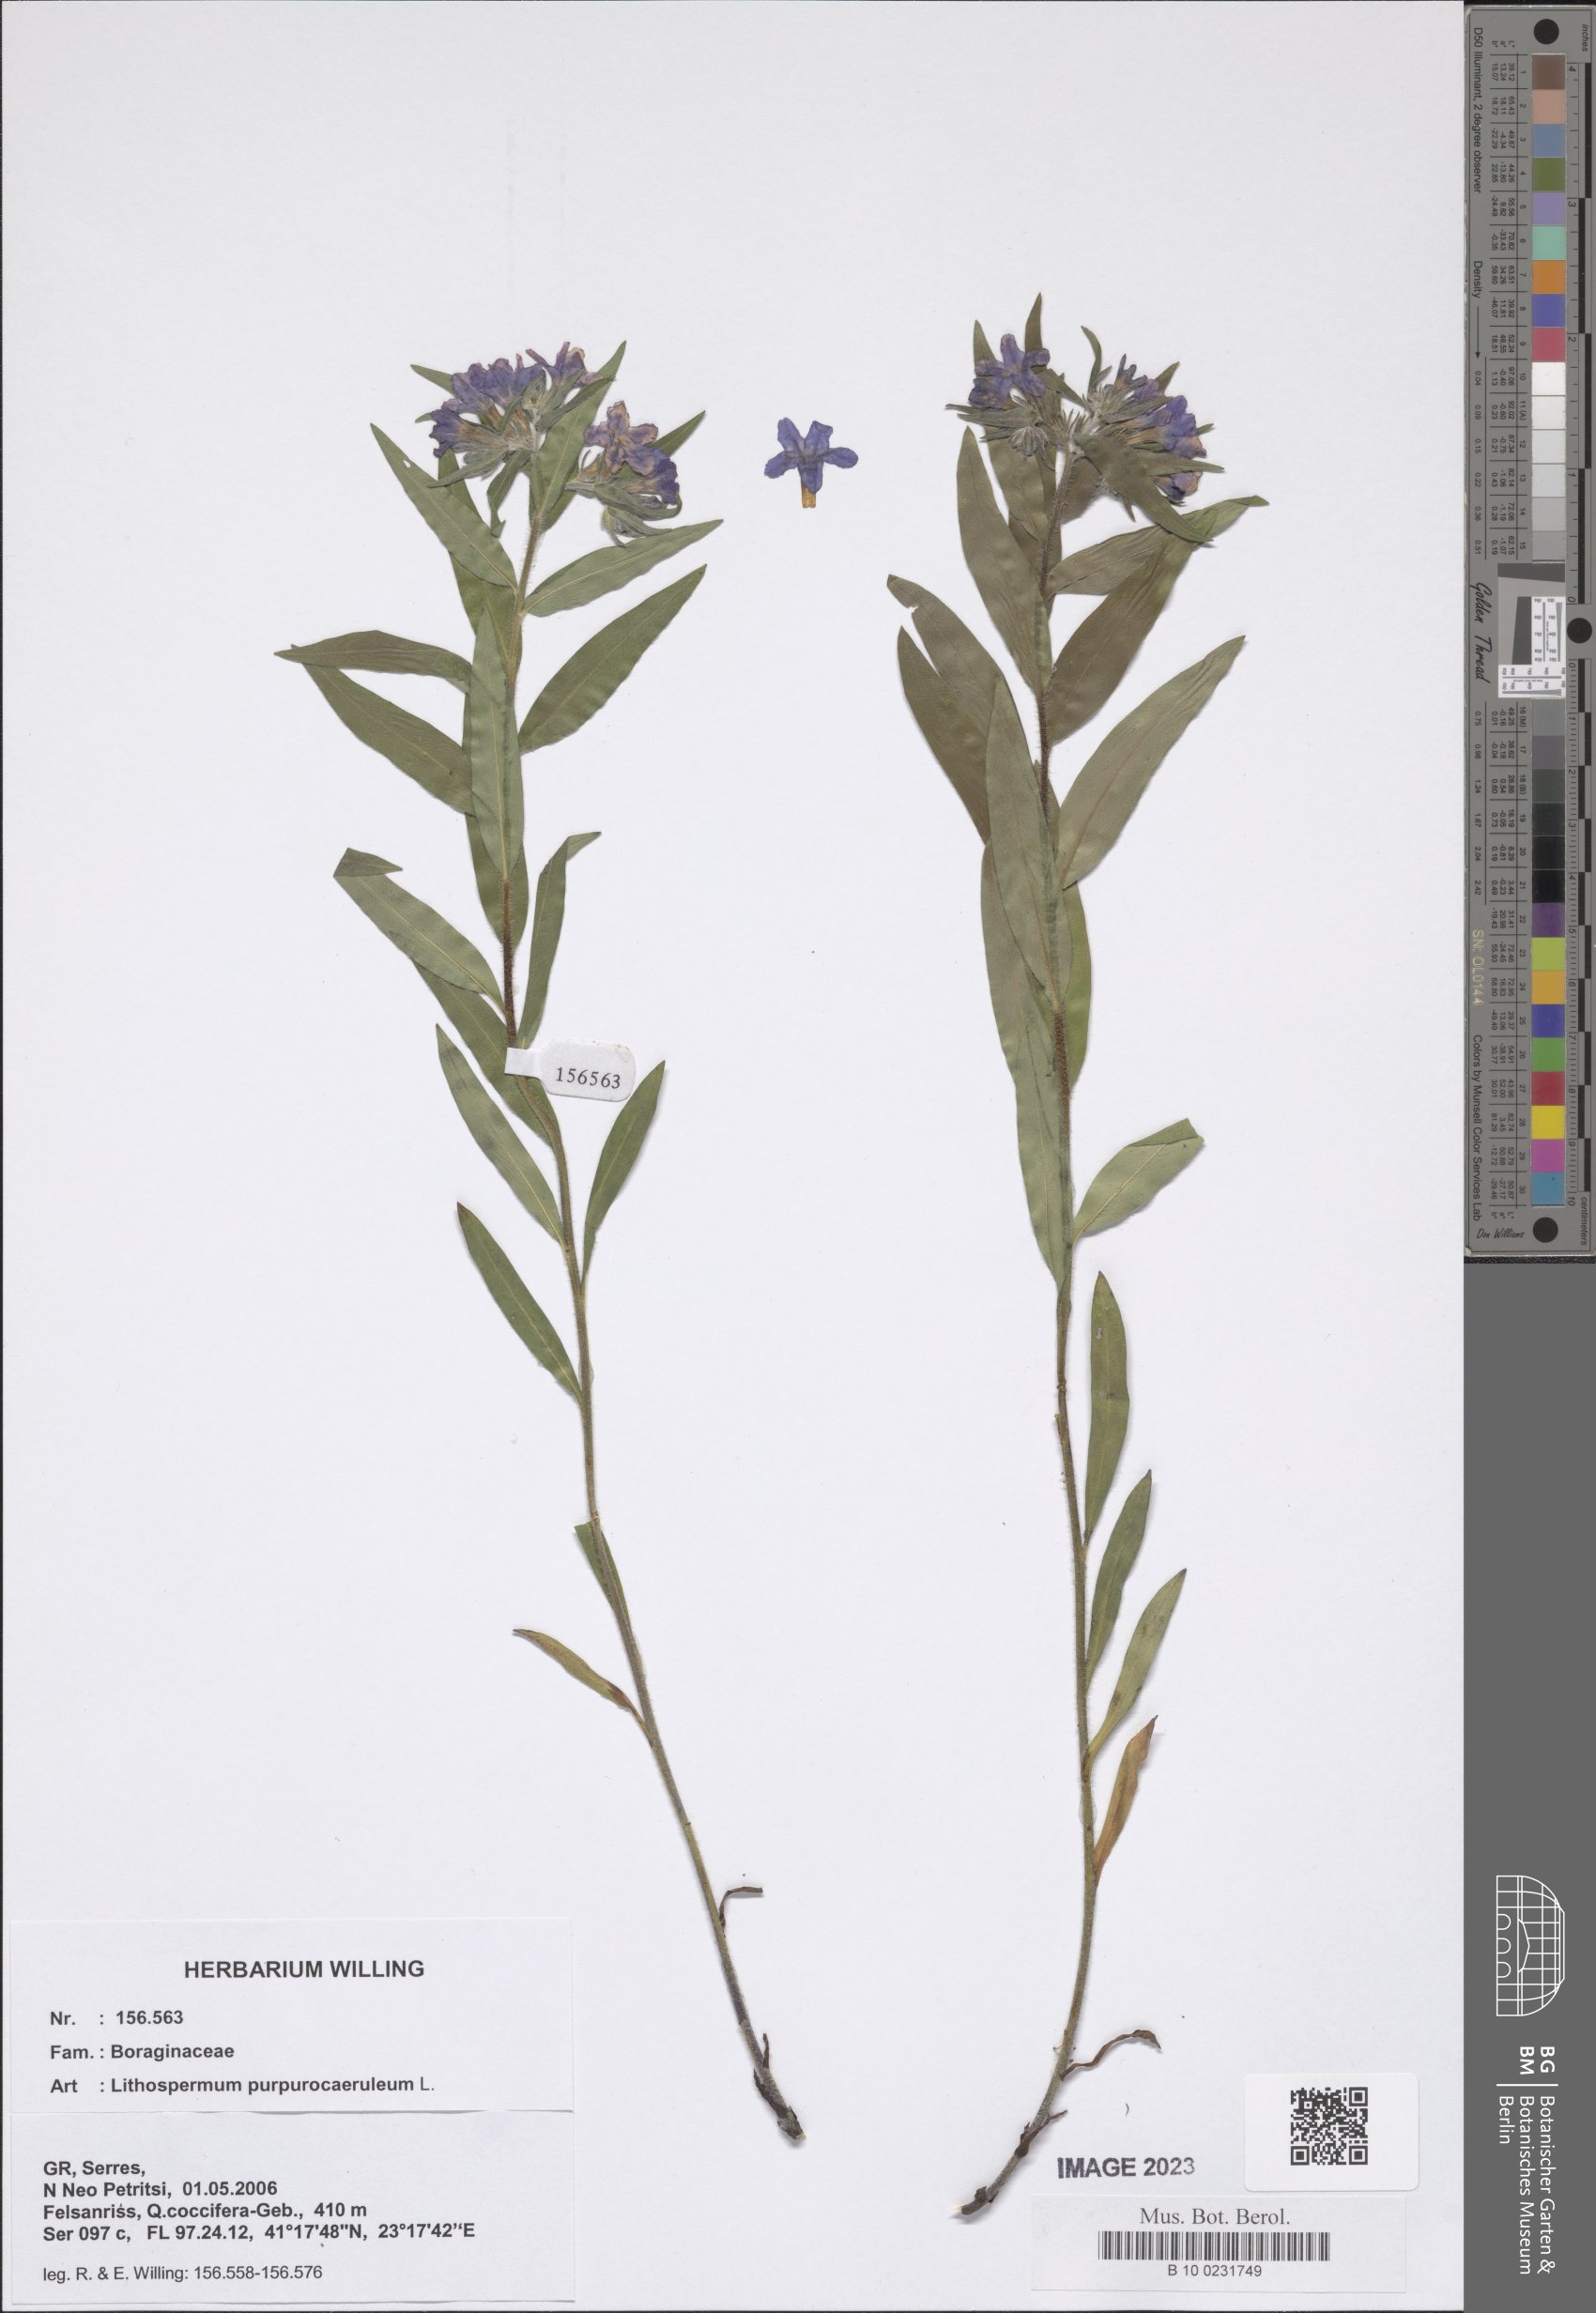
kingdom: Plantae
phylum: Tracheophyta
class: Magnoliopsida
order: Boraginales
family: Boraginaceae
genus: Aegonychon
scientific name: Aegonychon purpurocaeruleum
